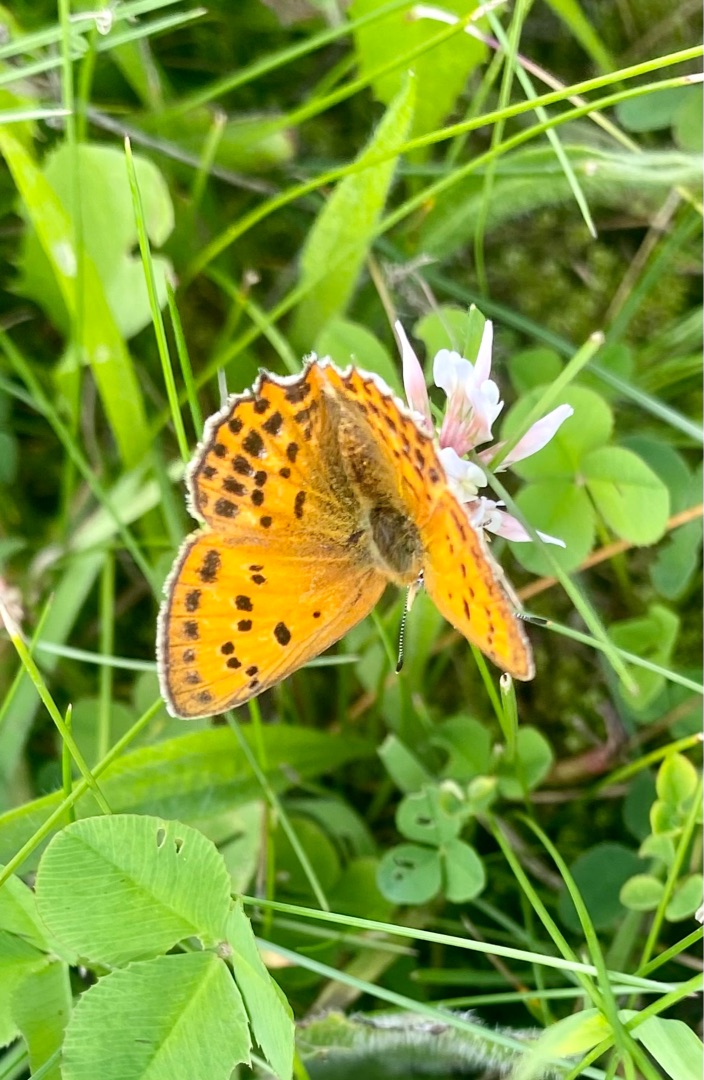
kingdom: Animalia
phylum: Arthropoda
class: Insecta
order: Lepidoptera
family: Lycaenidae
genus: Lycaena
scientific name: Lycaena virgaureae
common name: Dukatsommerfugl
